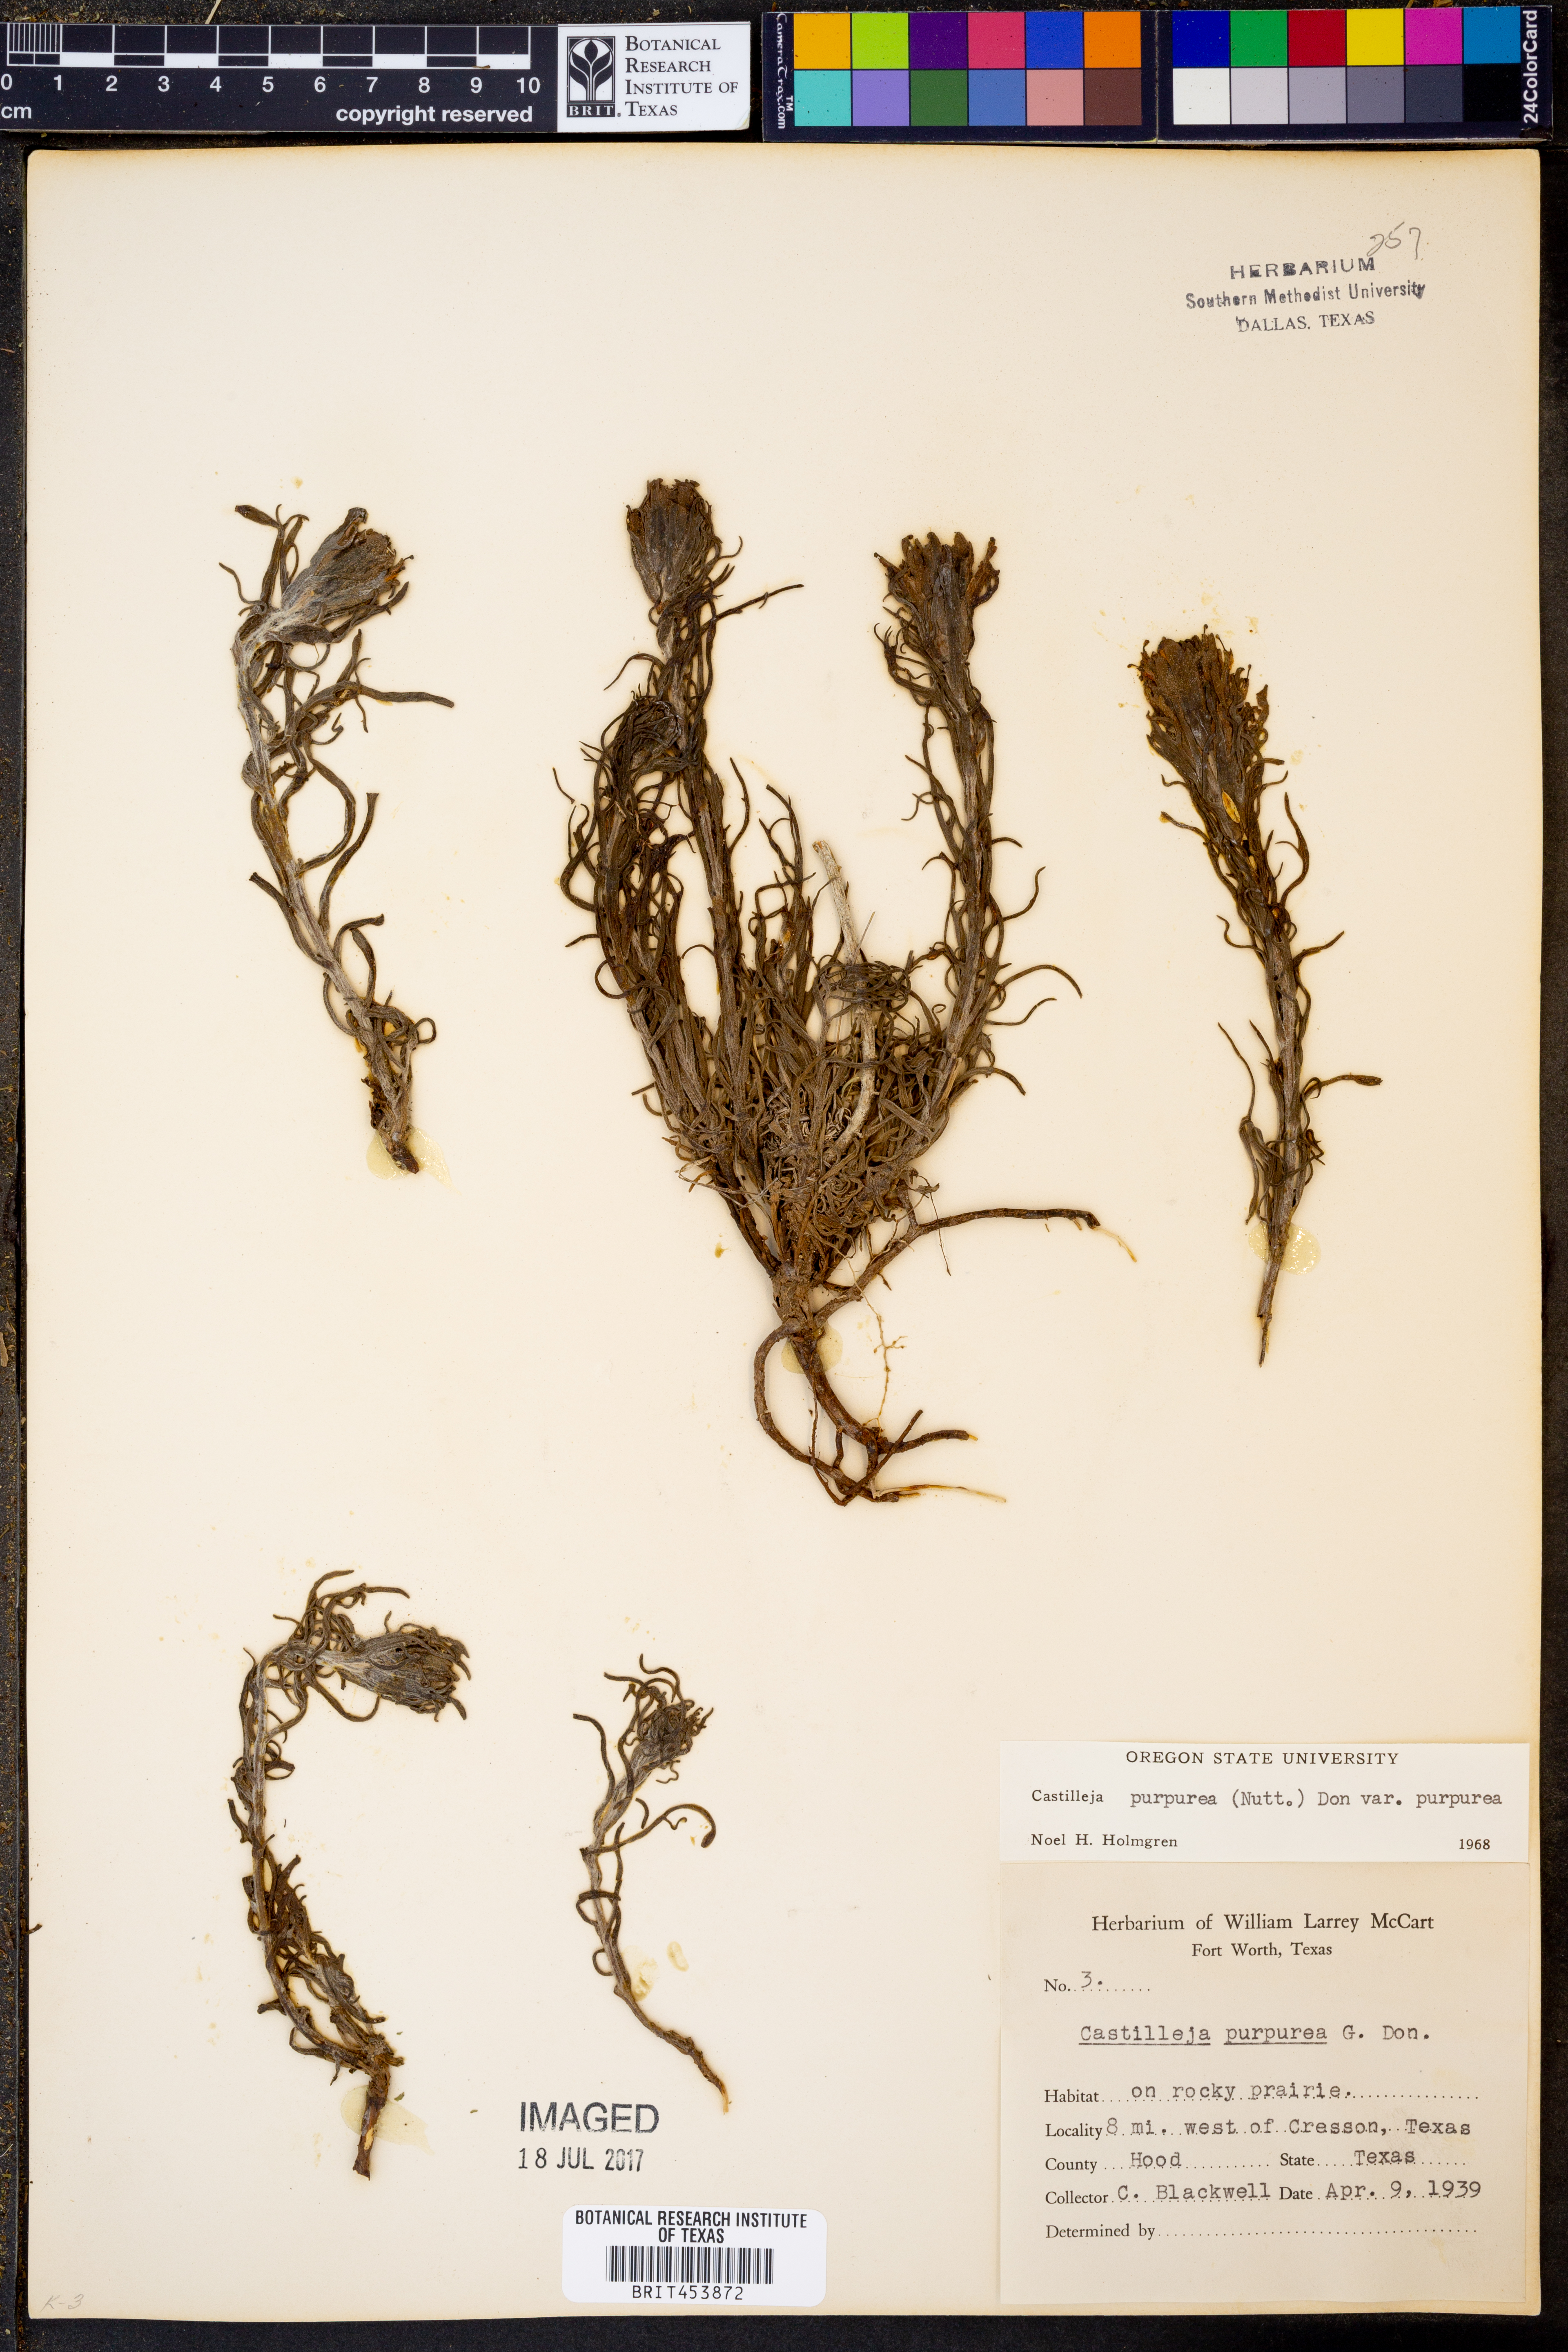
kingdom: Plantae
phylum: Tracheophyta
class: Magnoliopsida
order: Lamiales
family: Orobanchaceae
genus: Castilleja
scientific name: Castilleja purpurea
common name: Plains paintbrush
